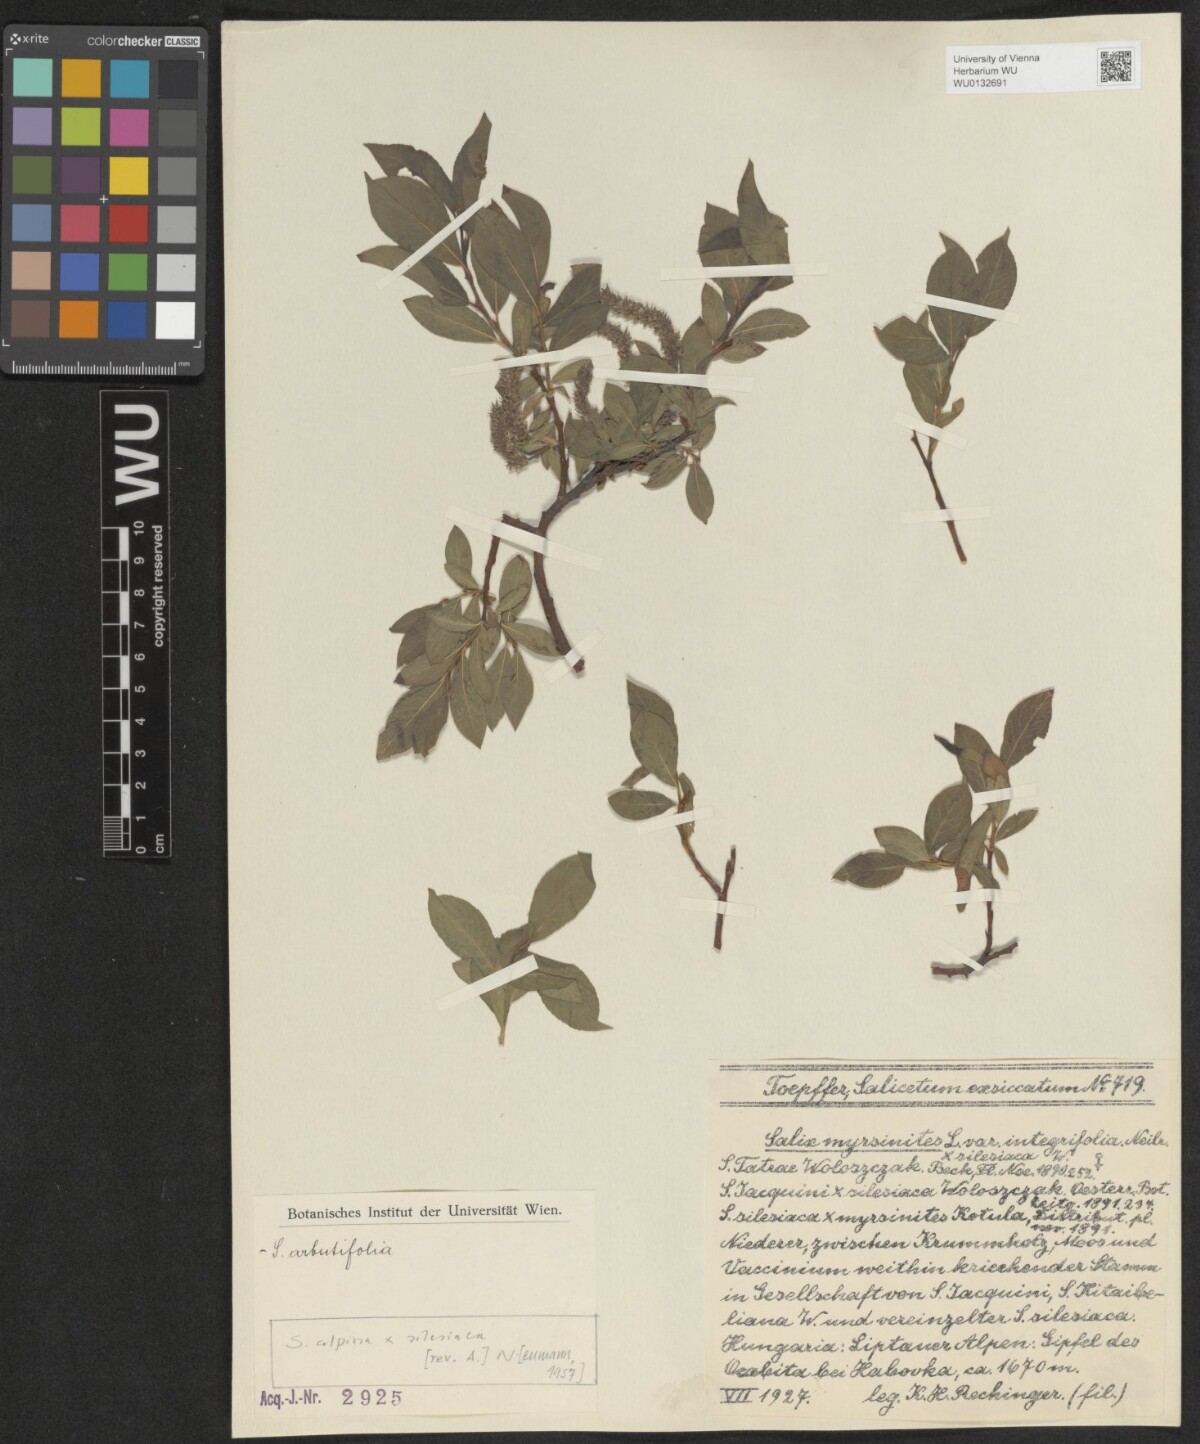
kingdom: Plantae
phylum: Tracheophyta
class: Magnoliopsida
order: Malpighiales
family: Salicaceae
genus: Salix
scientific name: Salix
